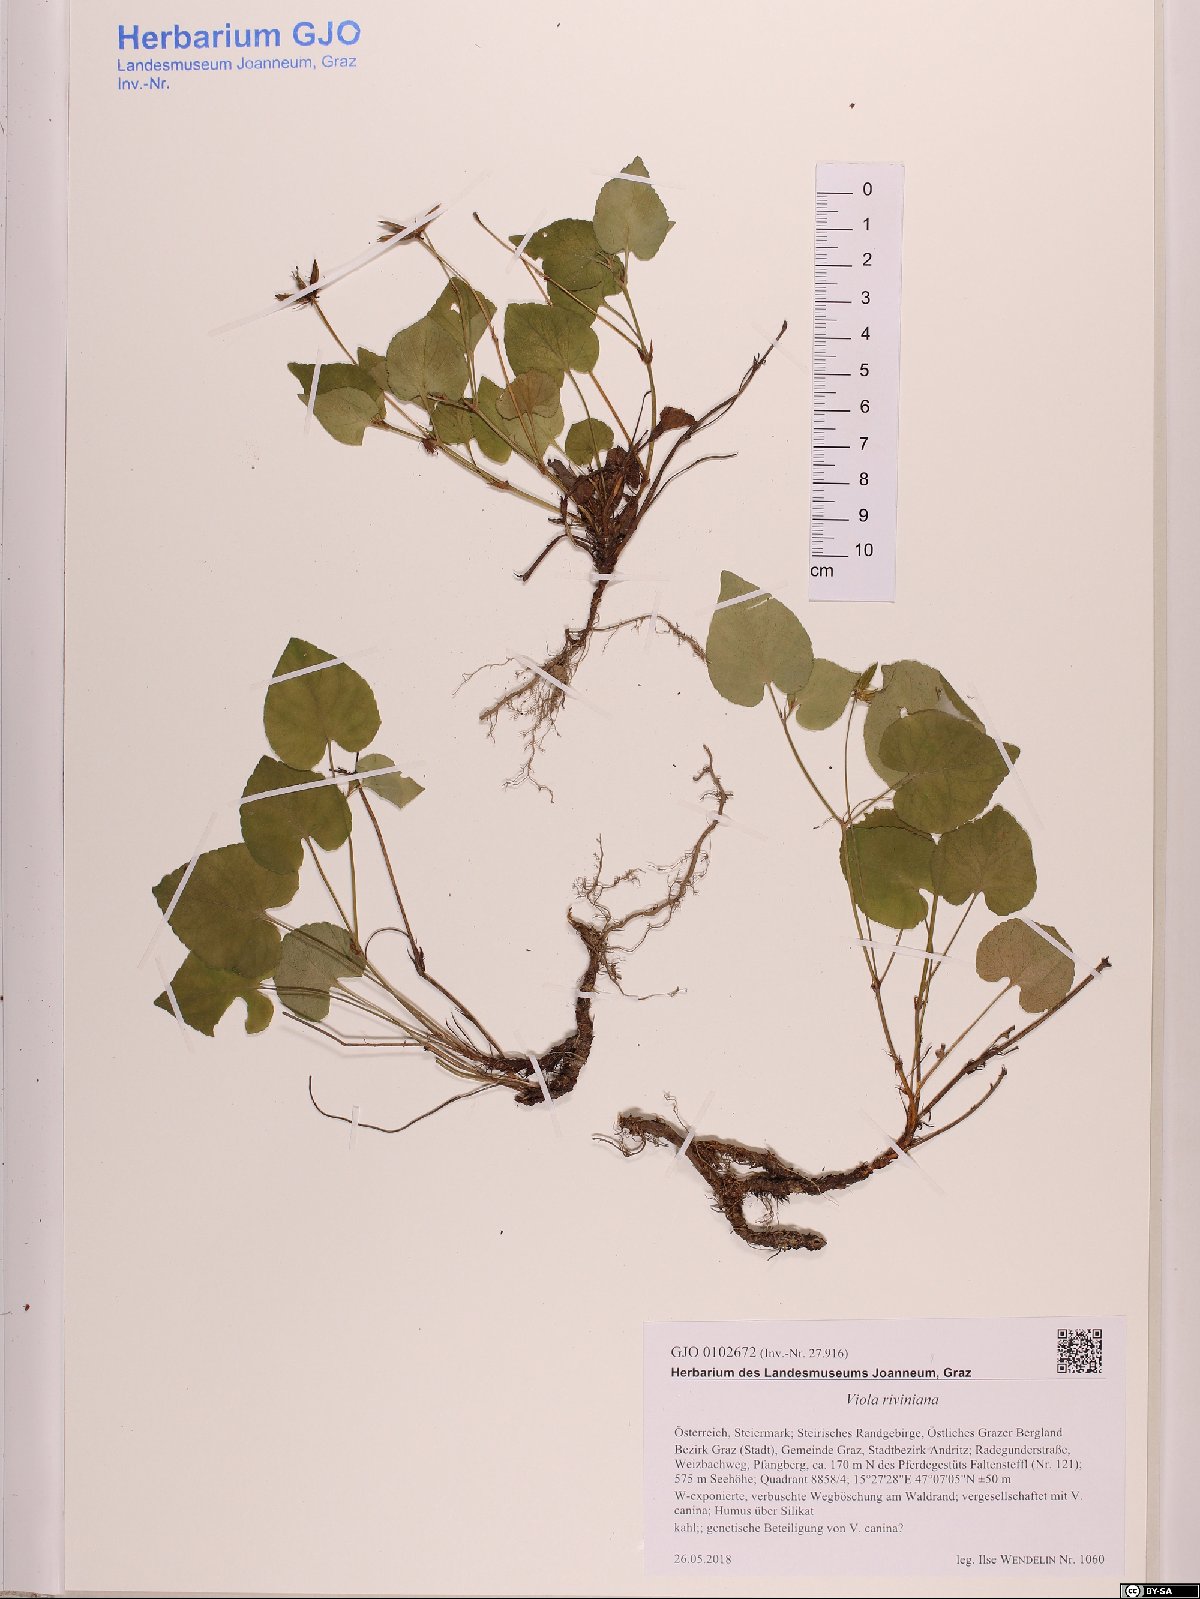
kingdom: Plantae
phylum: Tracheophyta
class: Magnoliopsida
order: Malpighiales
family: Violaceae
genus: Viola
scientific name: Viola riviniana
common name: Common dog-violet
